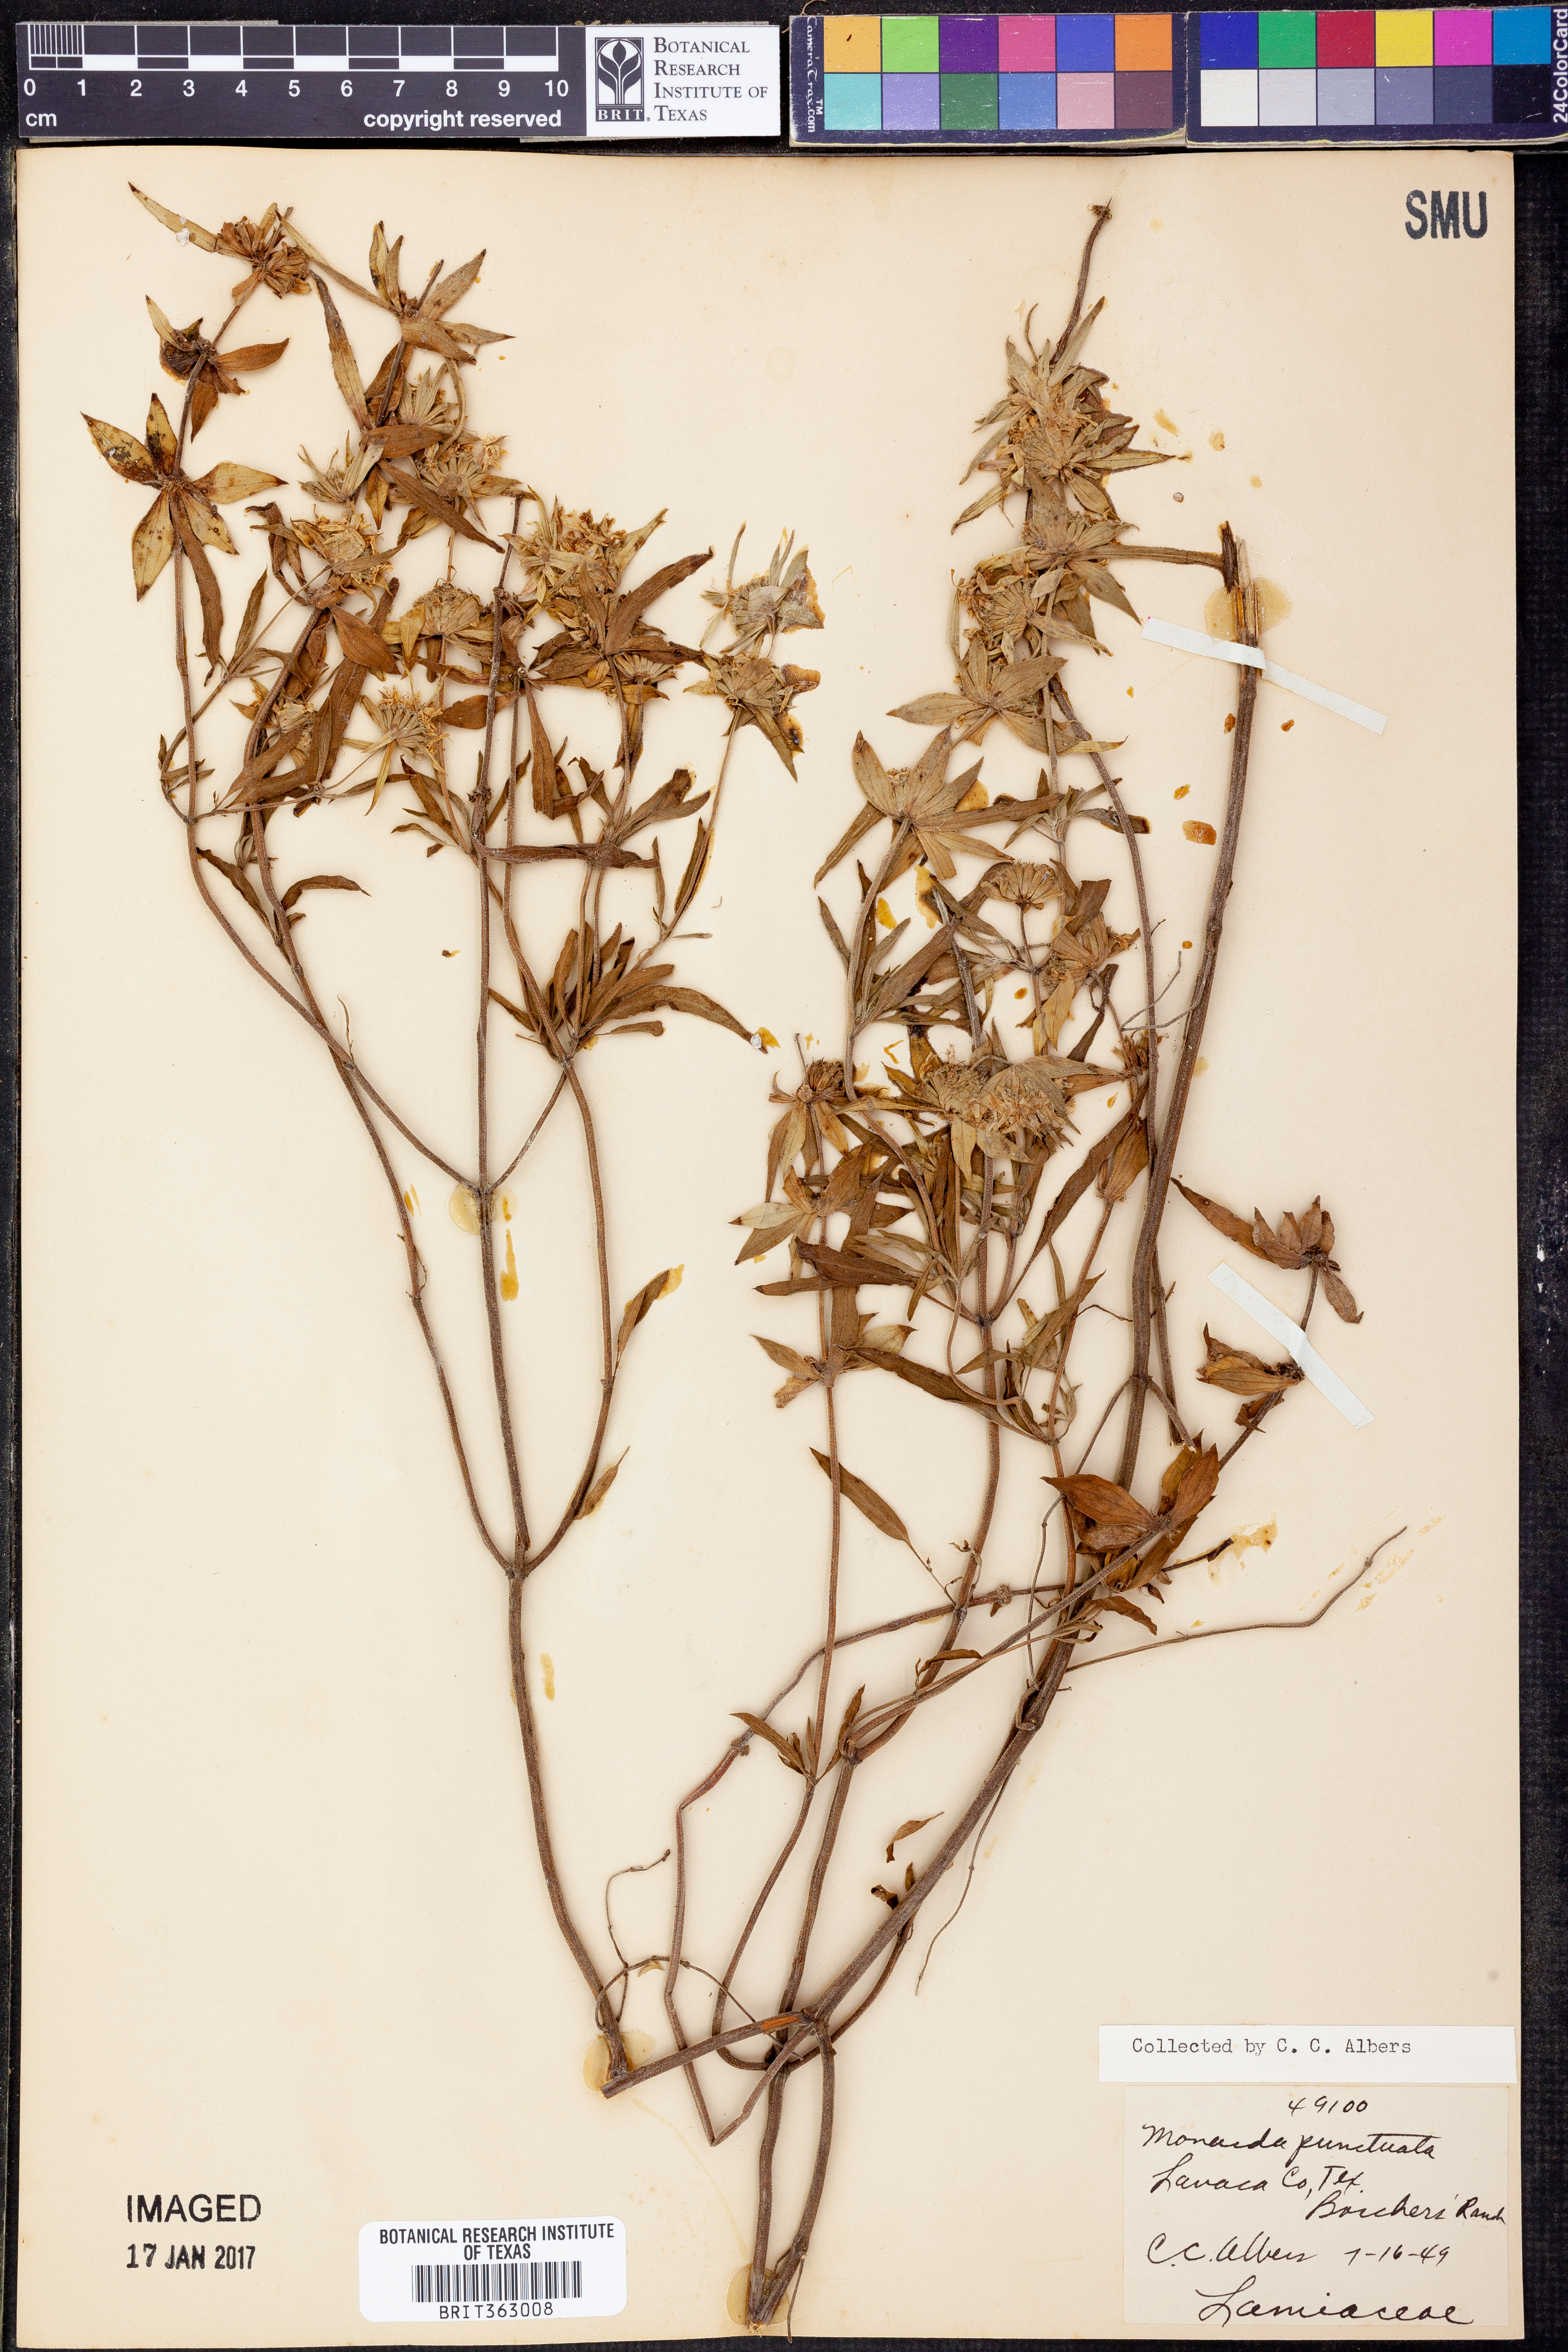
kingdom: Plantae
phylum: Tracheophyta
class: Magnoliopsida
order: Lamiales
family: Lamiaceae
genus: Monarda
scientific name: Monarda punctata
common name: Dotted monarda
